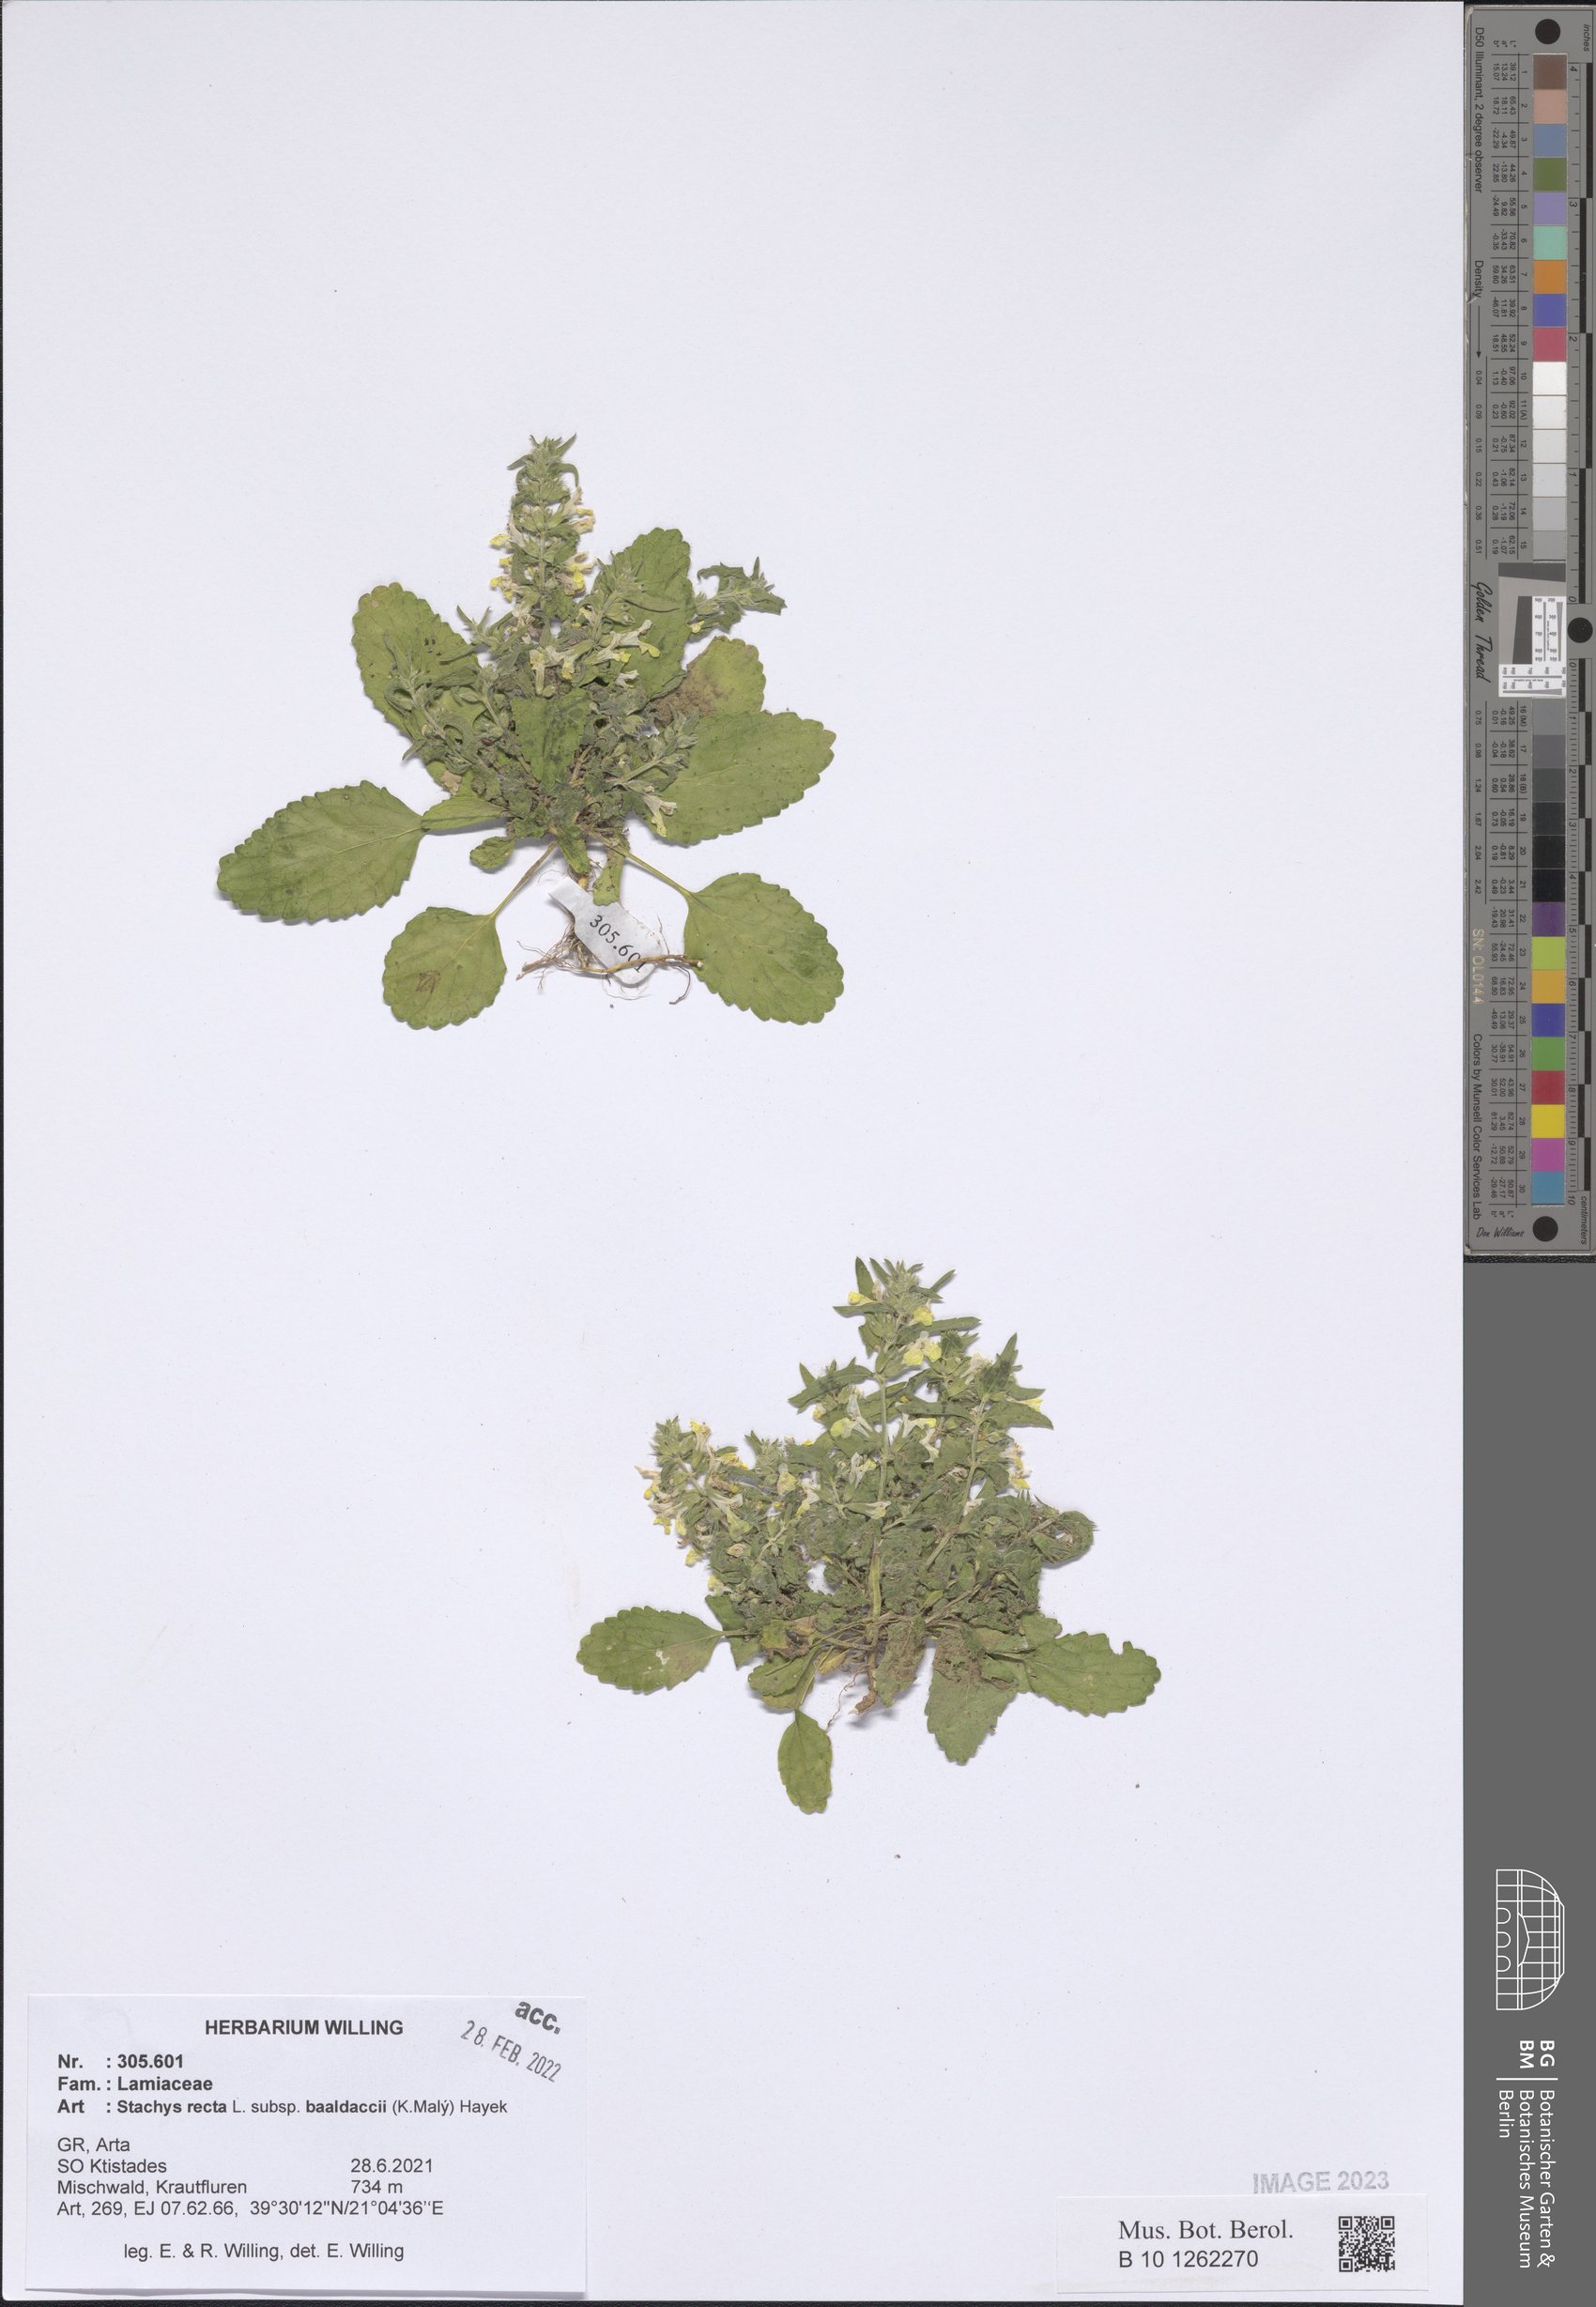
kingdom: Plantae
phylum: Tracheophyta
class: Magnoliopsida
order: Lamiales
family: Lamiaceae
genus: Stachys
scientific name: Stachys recta
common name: Perennial yellow-woundwort
